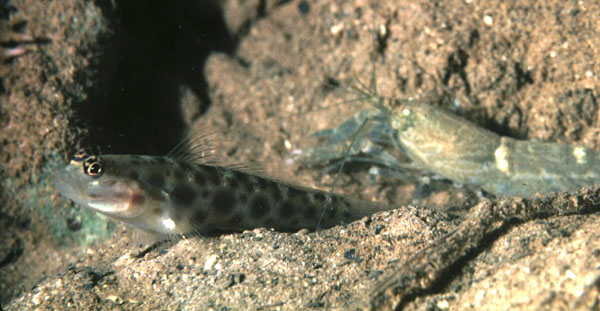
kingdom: Animalia
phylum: Chordata
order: Perciformes
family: Gobiidae
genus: Ctenogobiops
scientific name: Ctenogobiops
